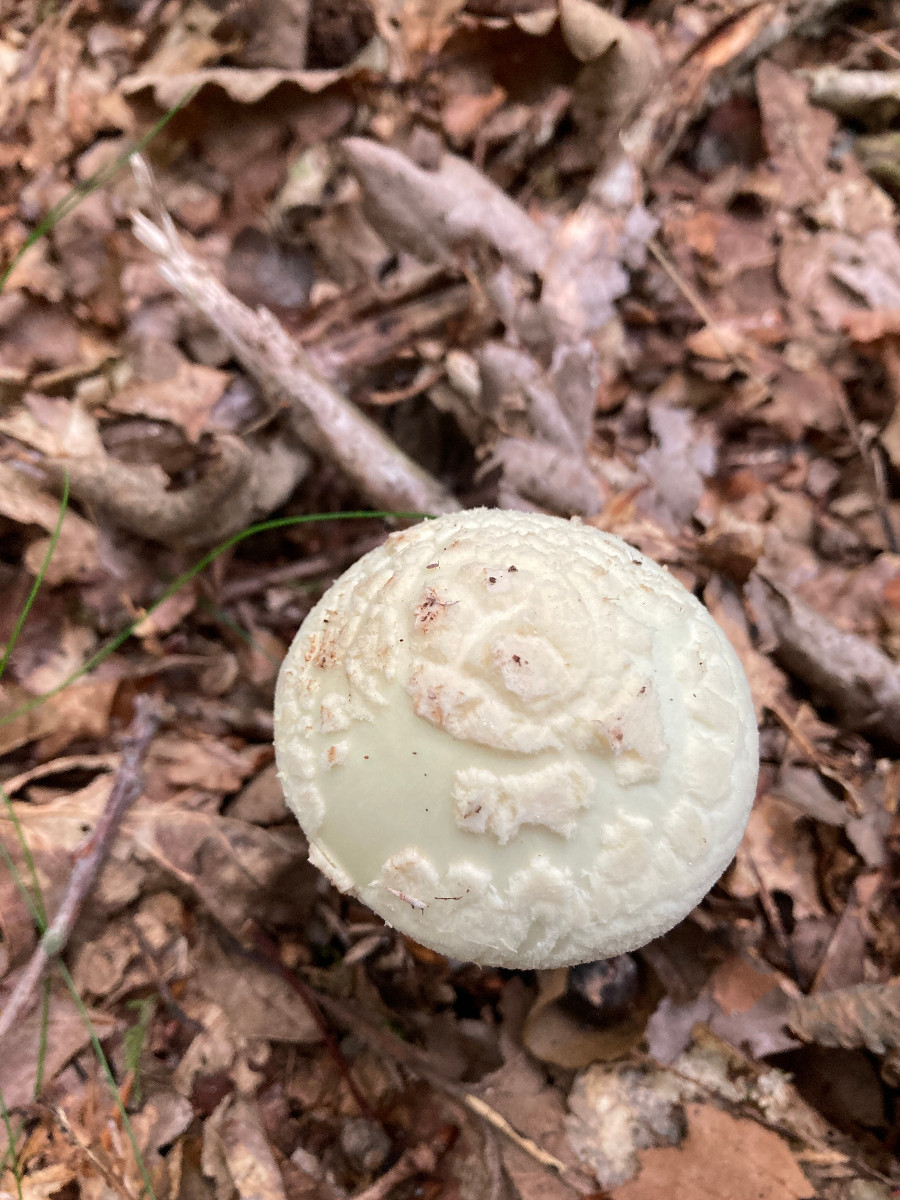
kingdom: Fungi
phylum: Basidiomycota
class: Agaricomycetes
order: Agaricales
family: Amanitaceae
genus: Amanita
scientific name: Amanita citrina
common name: kugleknoldet fluesvamp
